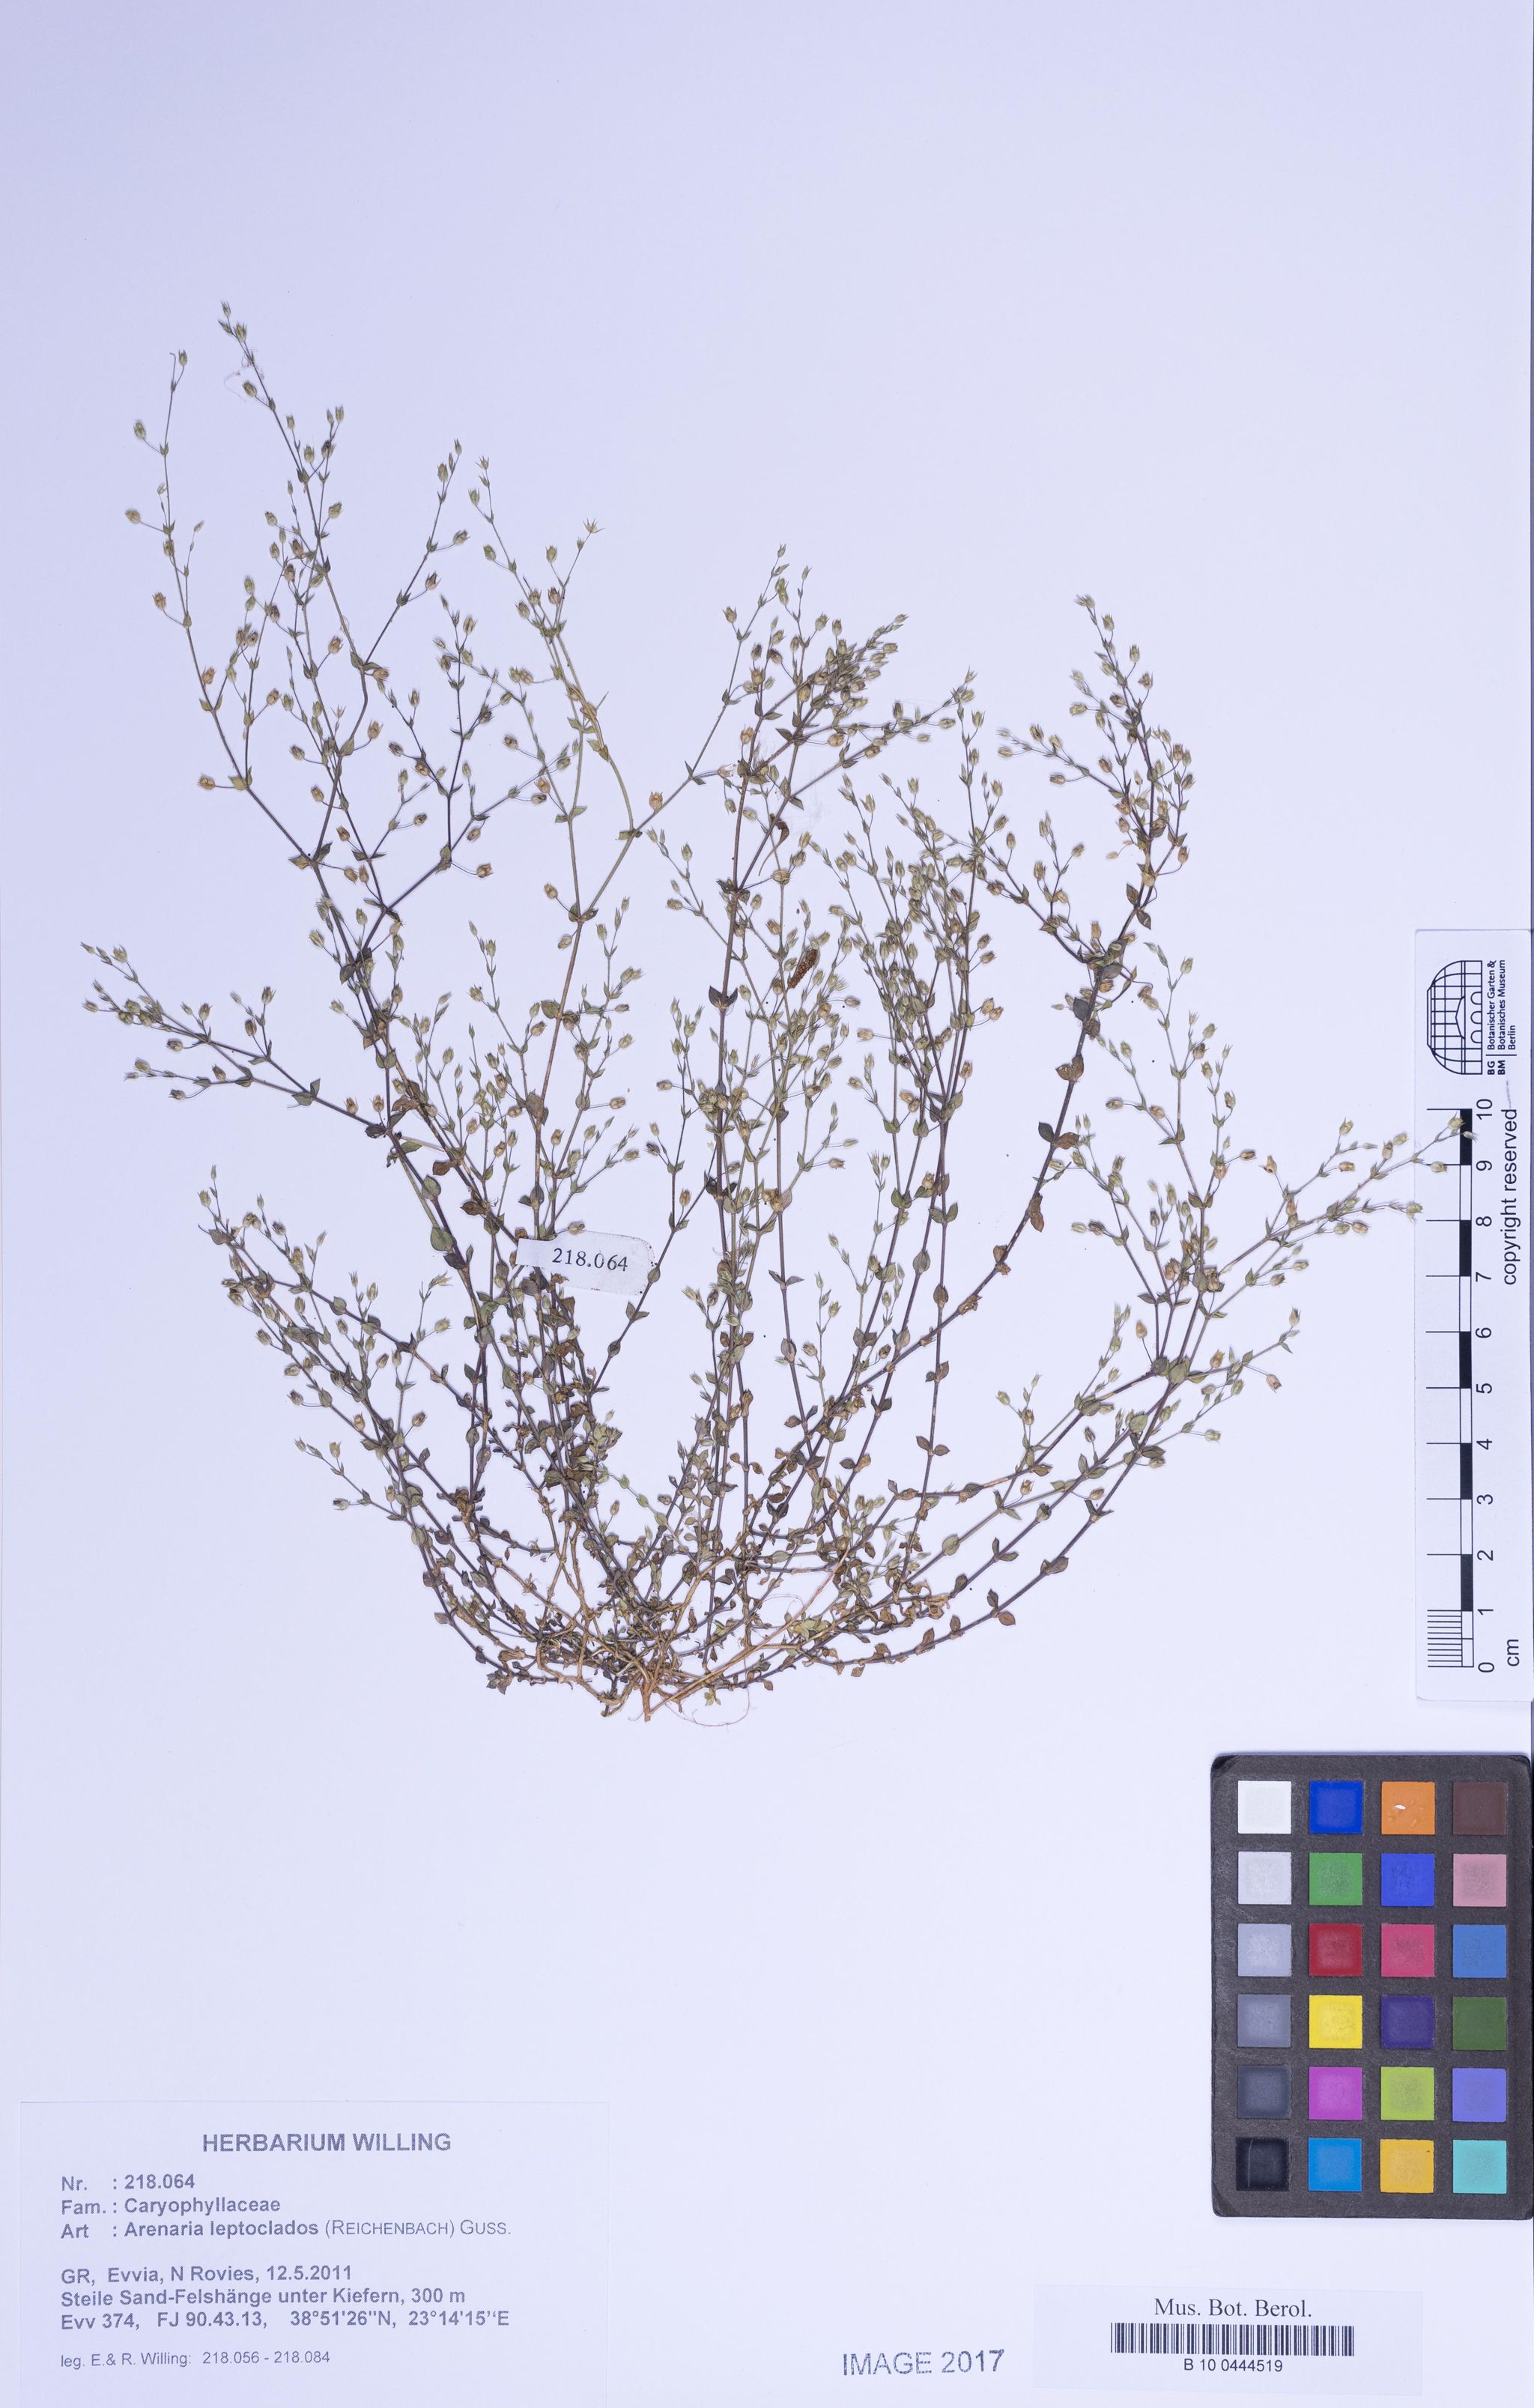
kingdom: Plantae
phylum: Tracheophyta
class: Magnoliopsida
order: Caryophyllales
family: Caryophyllaceae
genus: Arenaria
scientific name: Arenaria leptoclados
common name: Thyme-leaved sandwort
